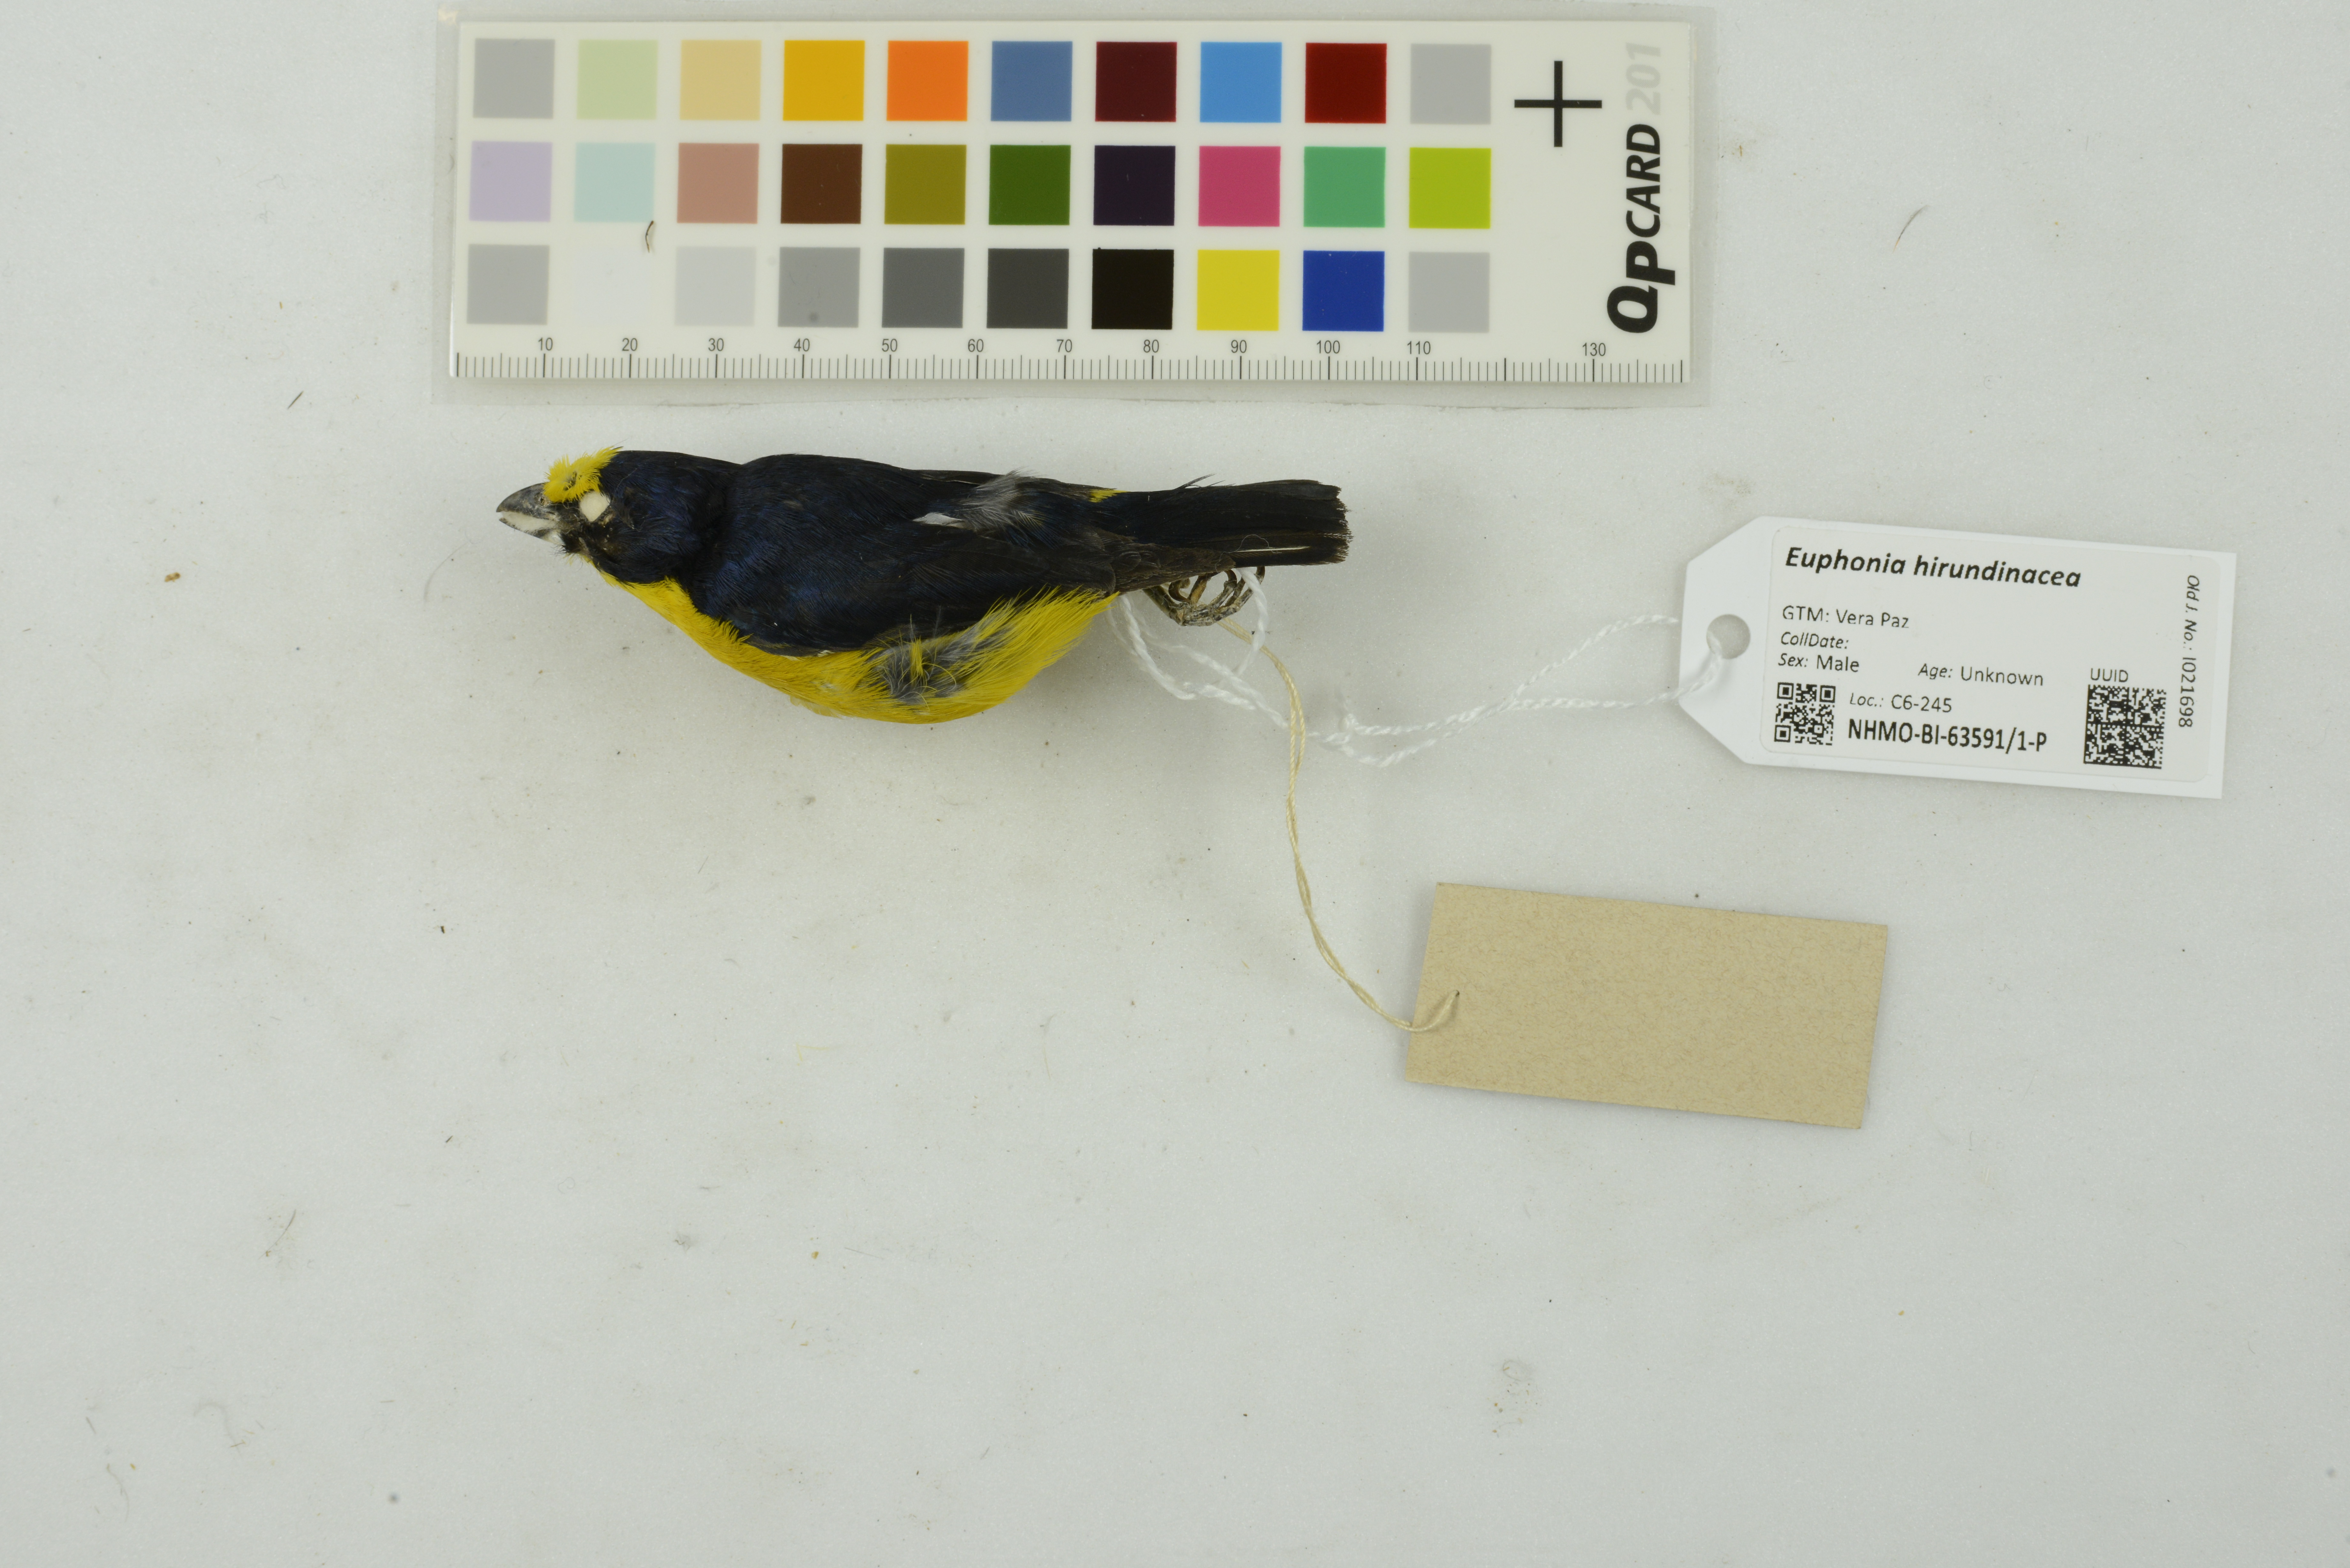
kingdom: Animalia
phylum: Chordata
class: Aves
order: Passeriformes
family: Fringillidae
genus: Euphonia
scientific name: Euphonia hirundinacea
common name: Yellow-throated euphonia
